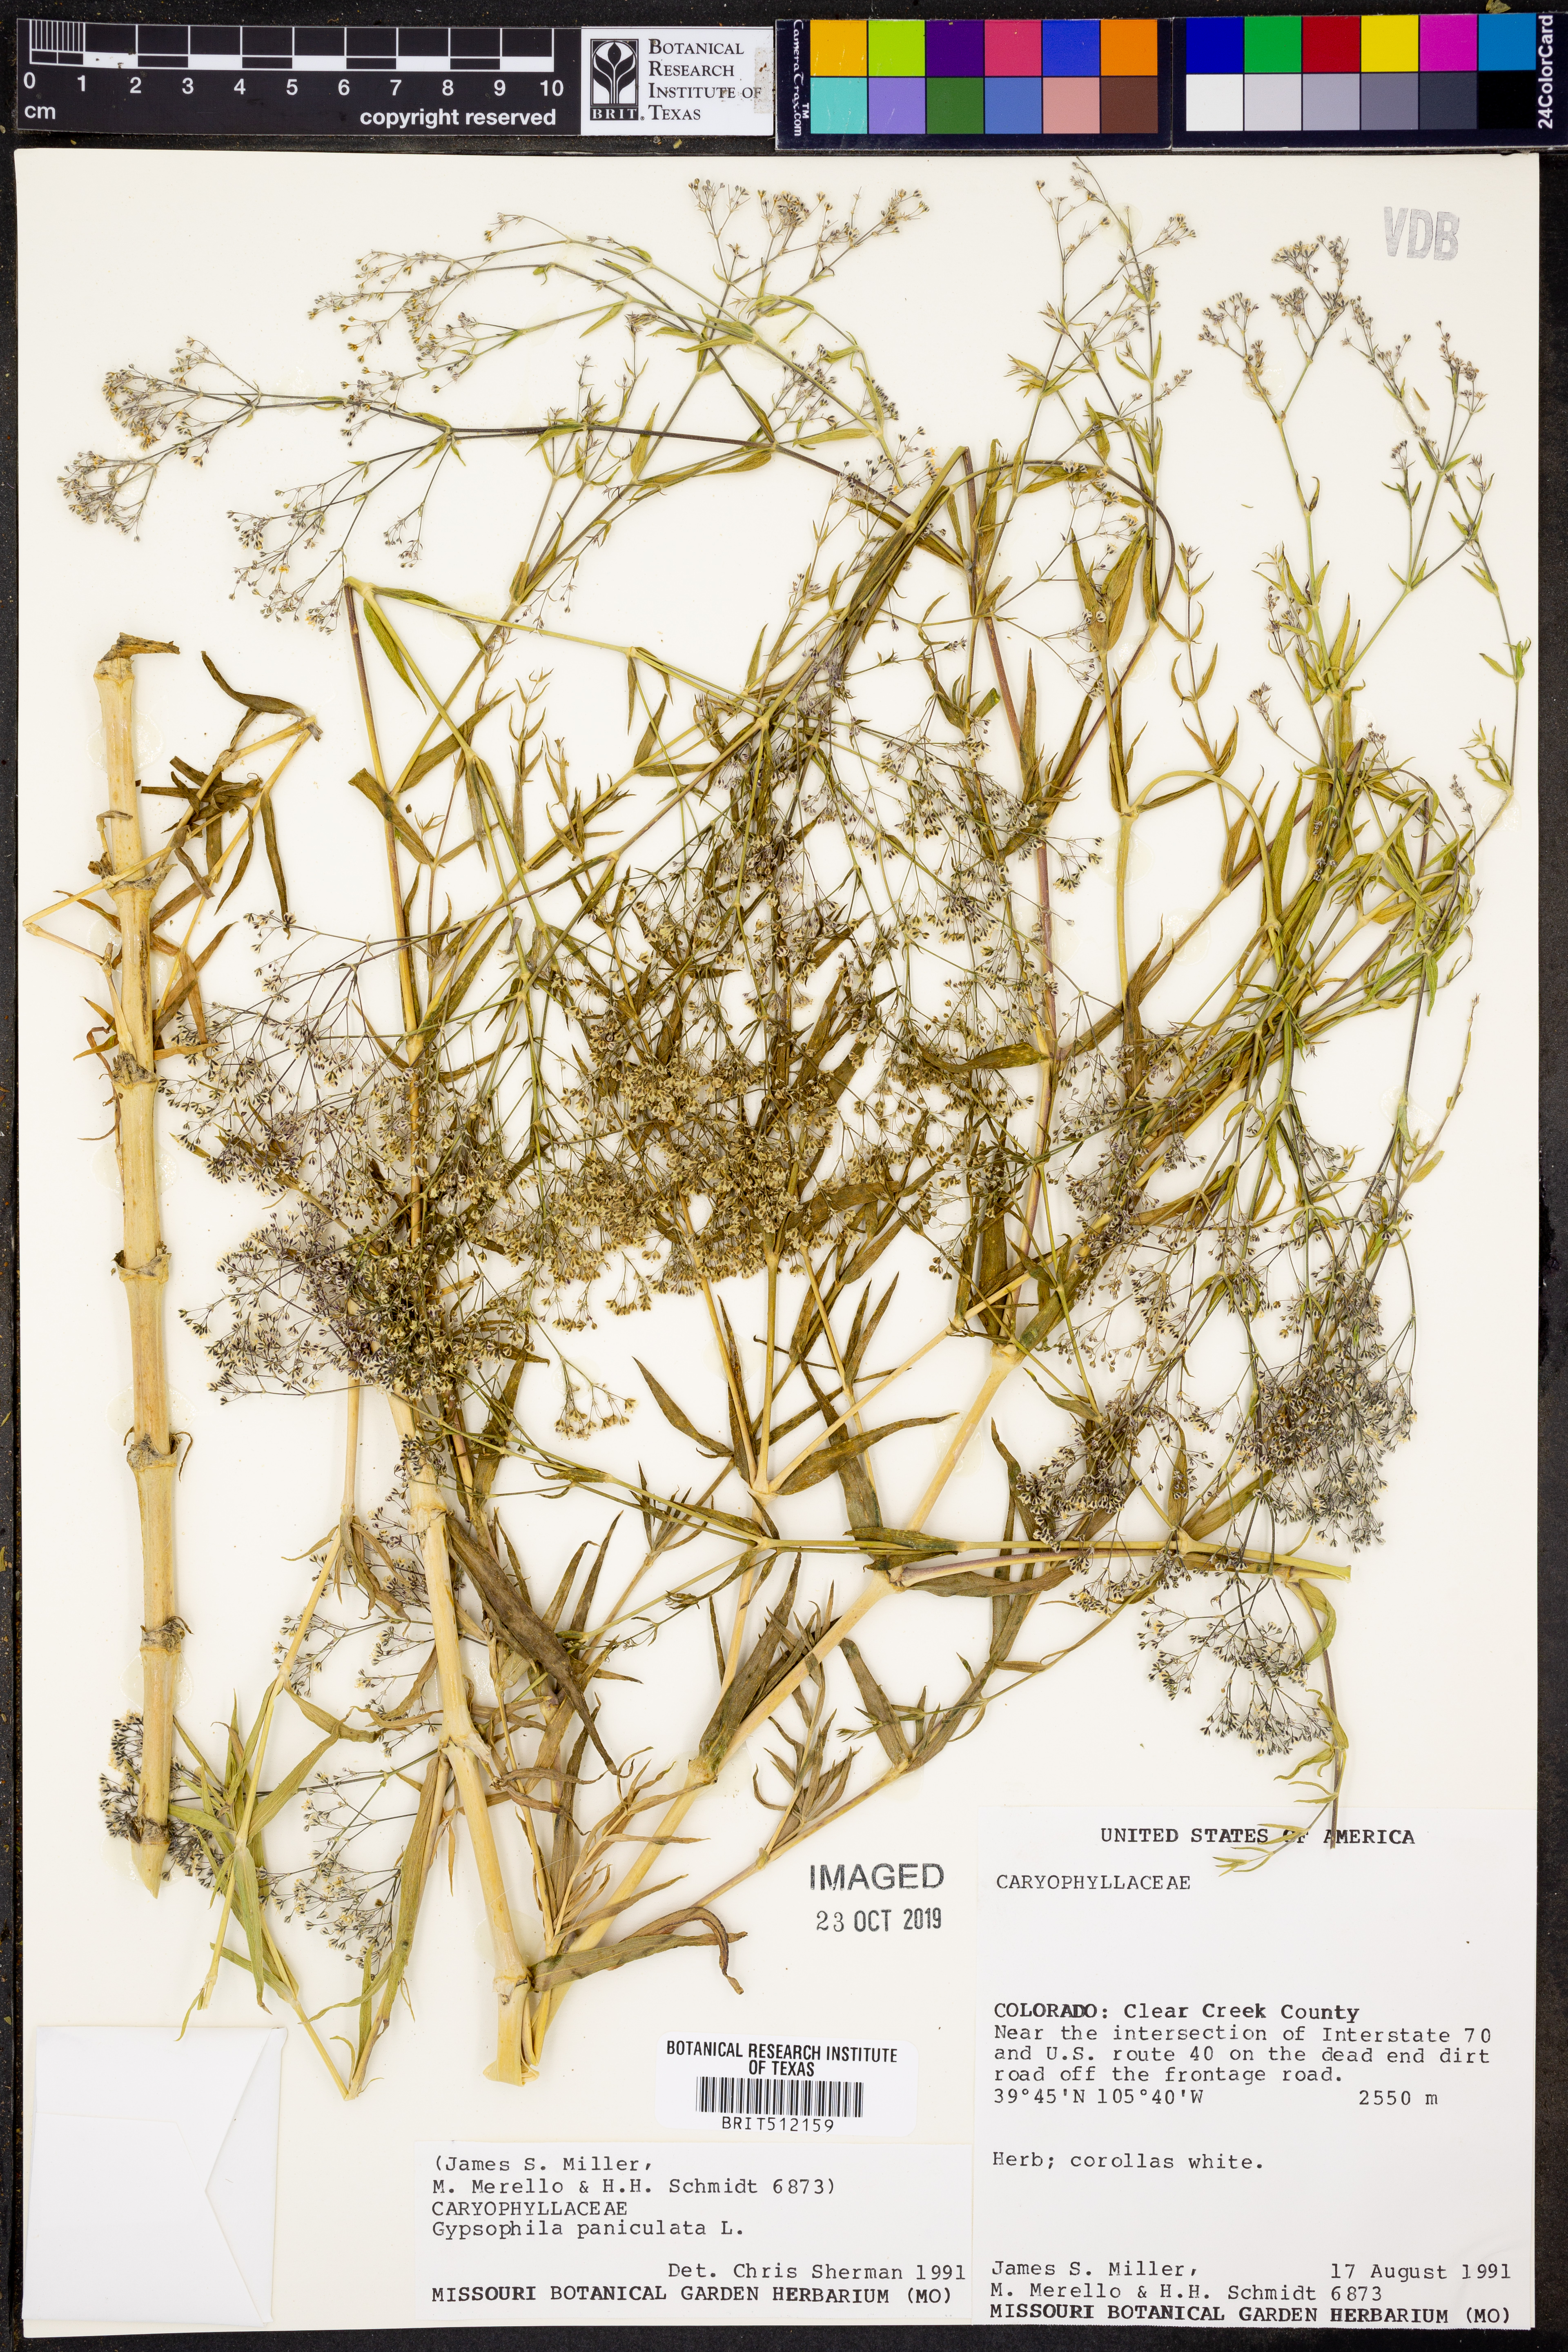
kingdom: Plantae
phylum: Tracheophyta
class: Magnoliopsida
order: Caryophyllales
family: Caryophyllaceae
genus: Gypsophila
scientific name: Gypsophila paniculata
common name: Baby's-breath
